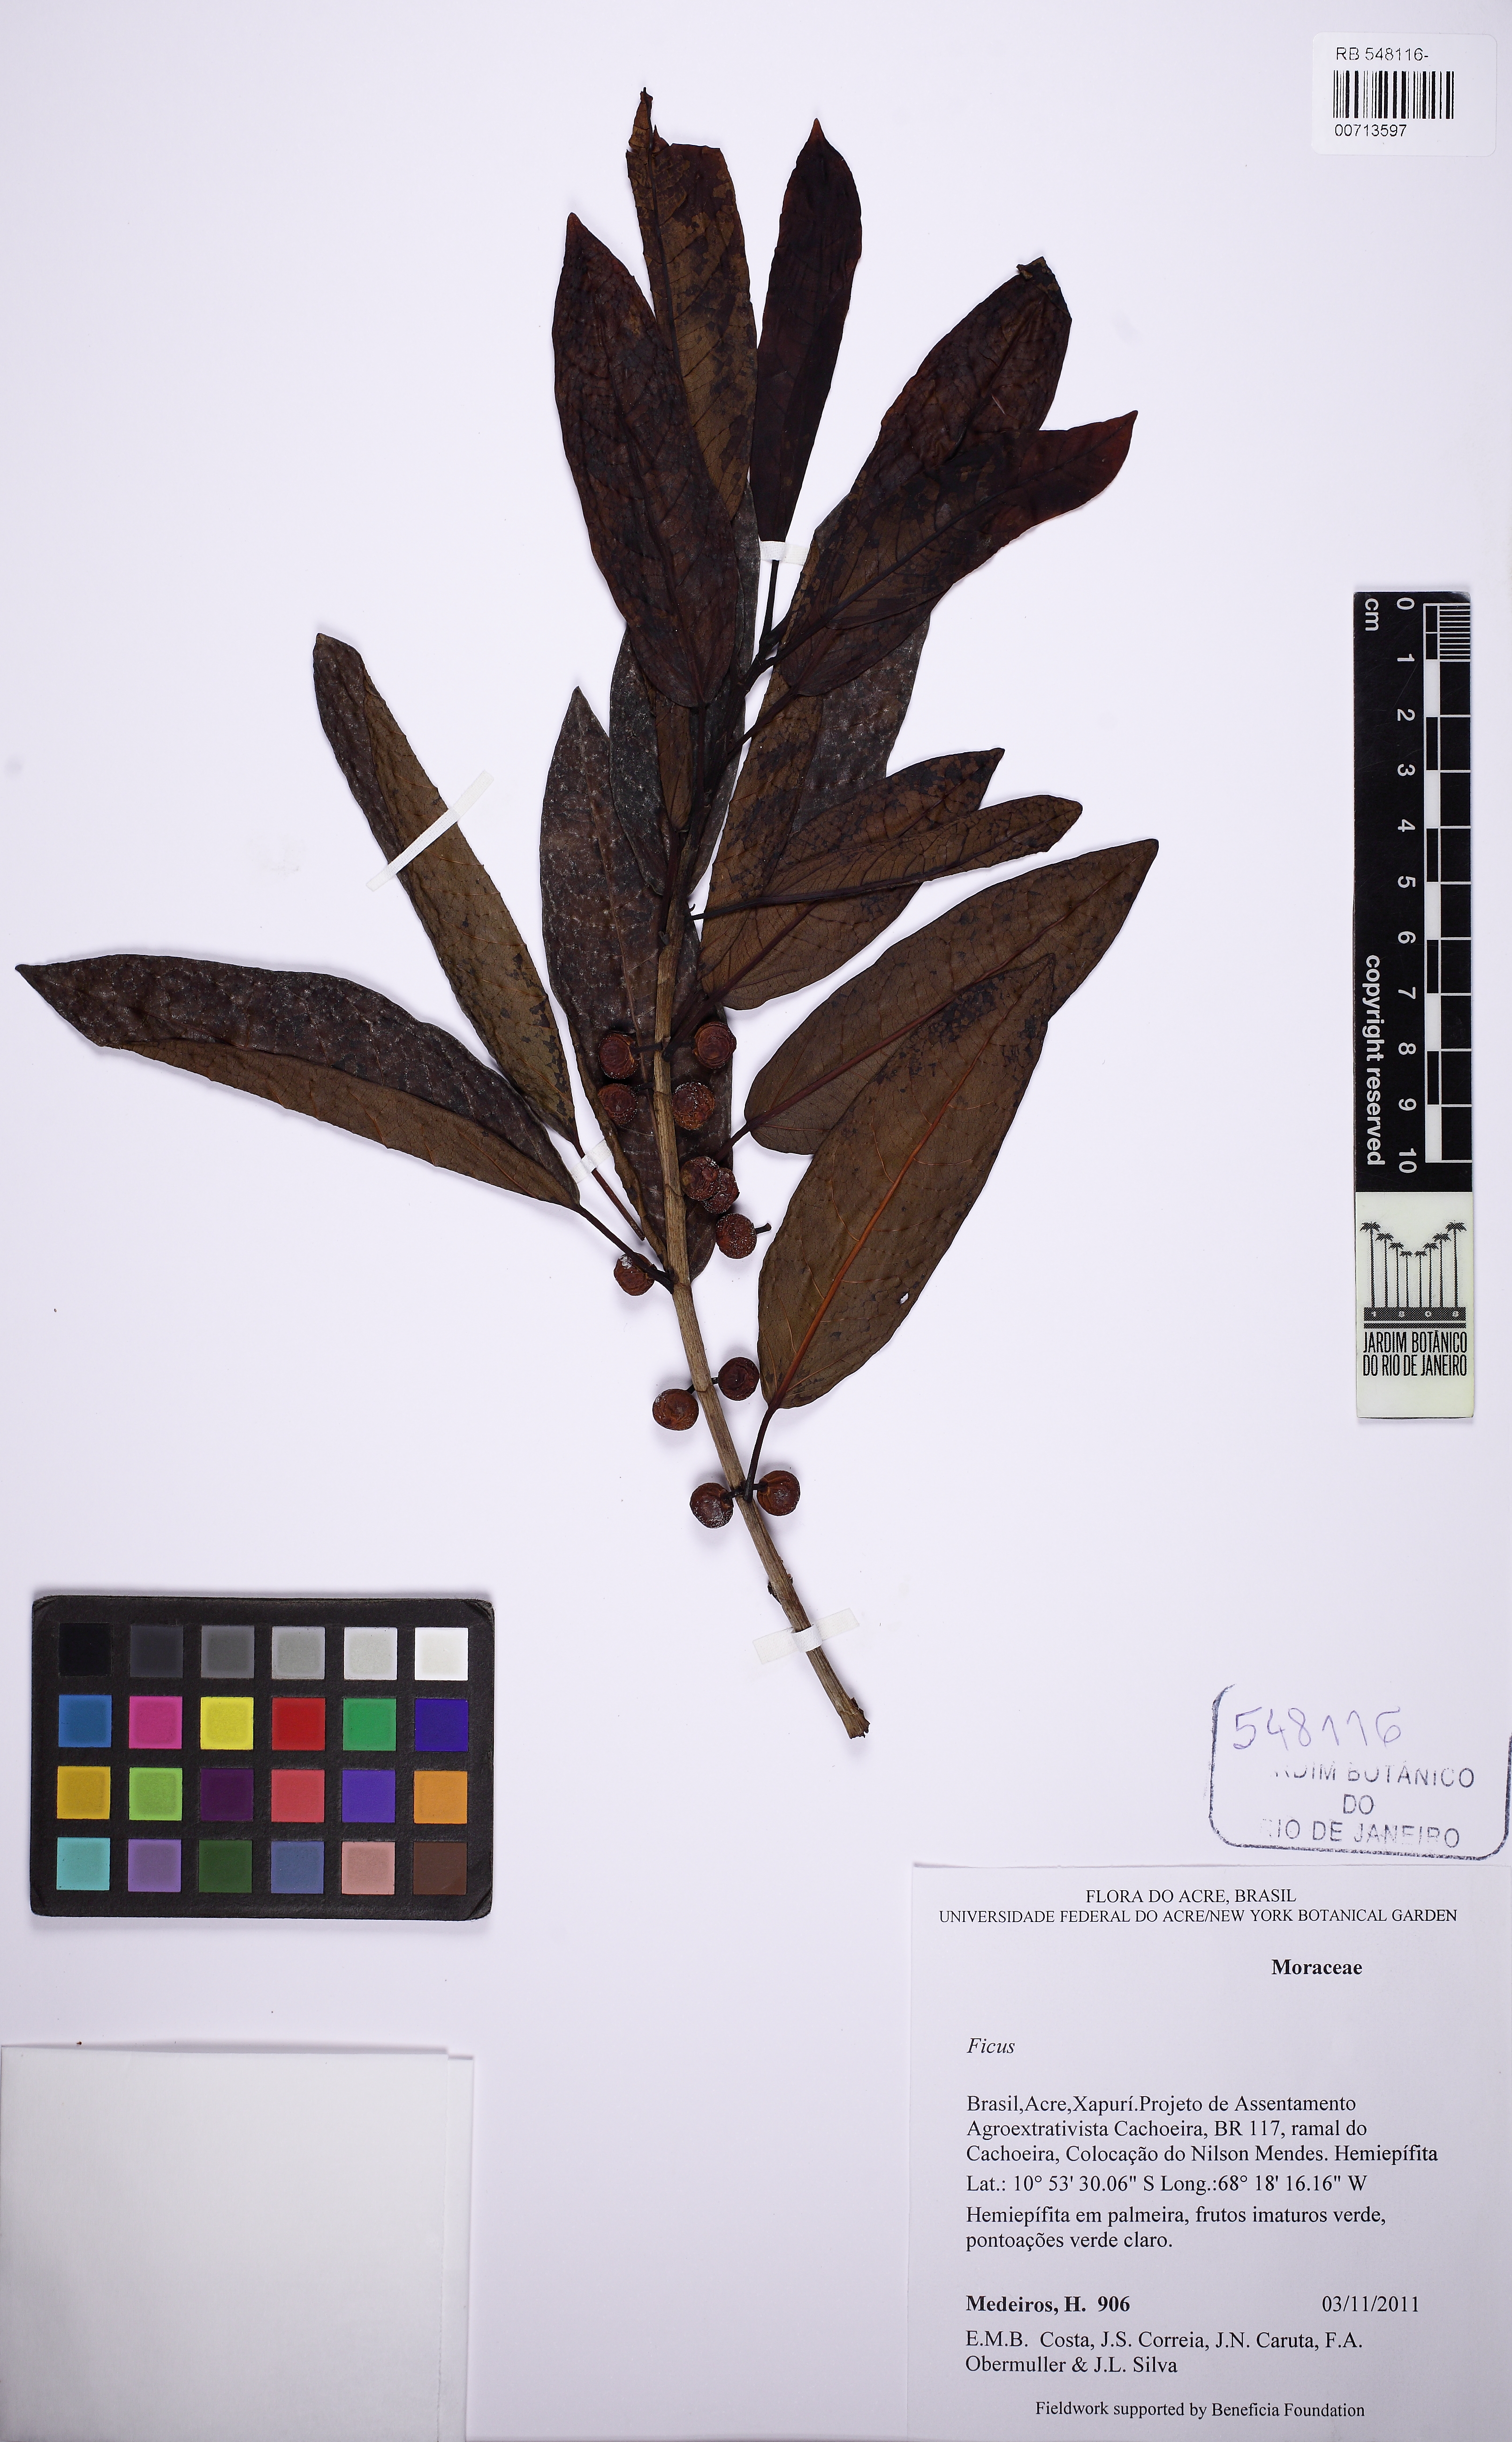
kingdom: Plantae
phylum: Tracheophyta
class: Magnoliopsida
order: Rosales
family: Moraceae
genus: Ficus
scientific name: Ficus donnell-smithii
